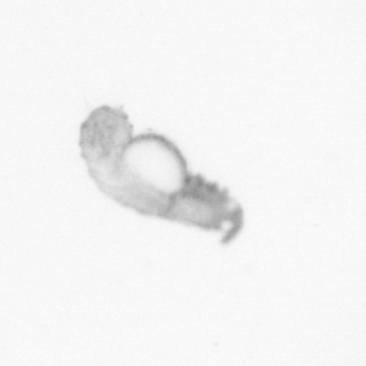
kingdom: Animalia
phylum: Annelida
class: Polychaeta
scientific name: Polychaeta
